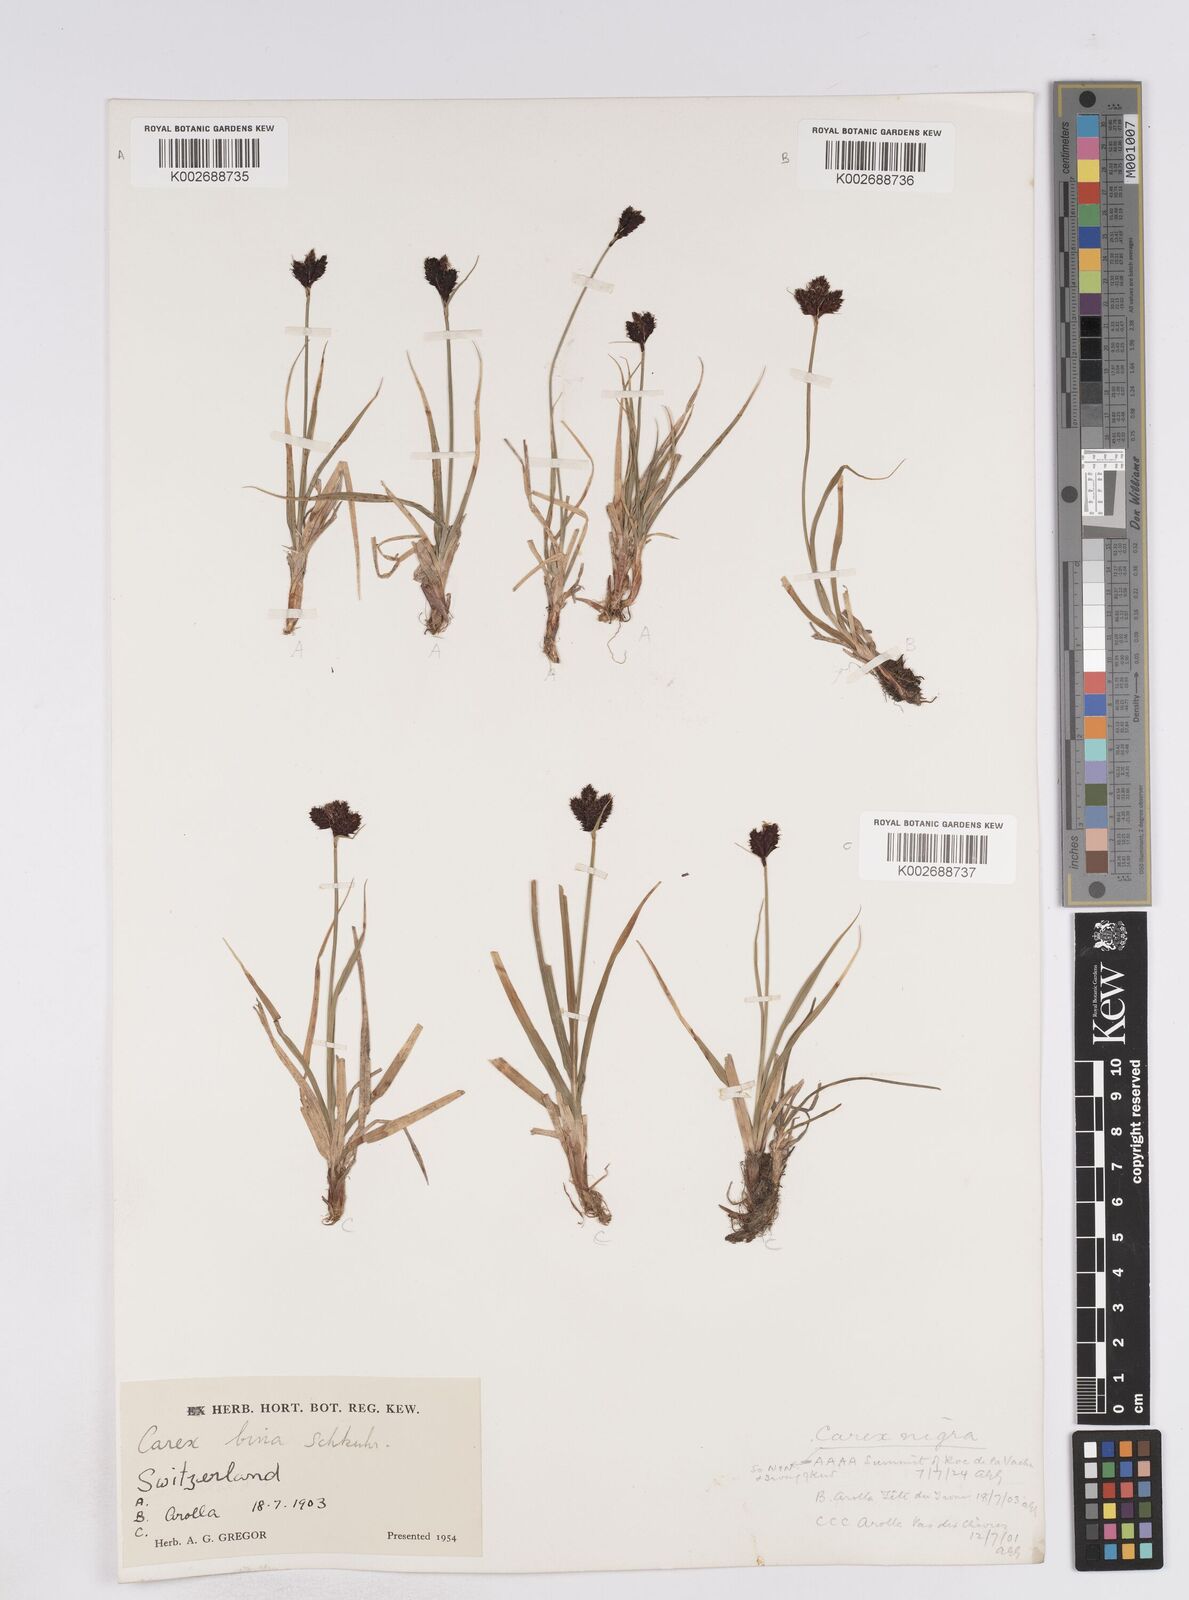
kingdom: Plantae
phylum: Tracheophyta
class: Liliopsida
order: Poales
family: Cyperaceae
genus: Carex
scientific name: Carex parviflora
